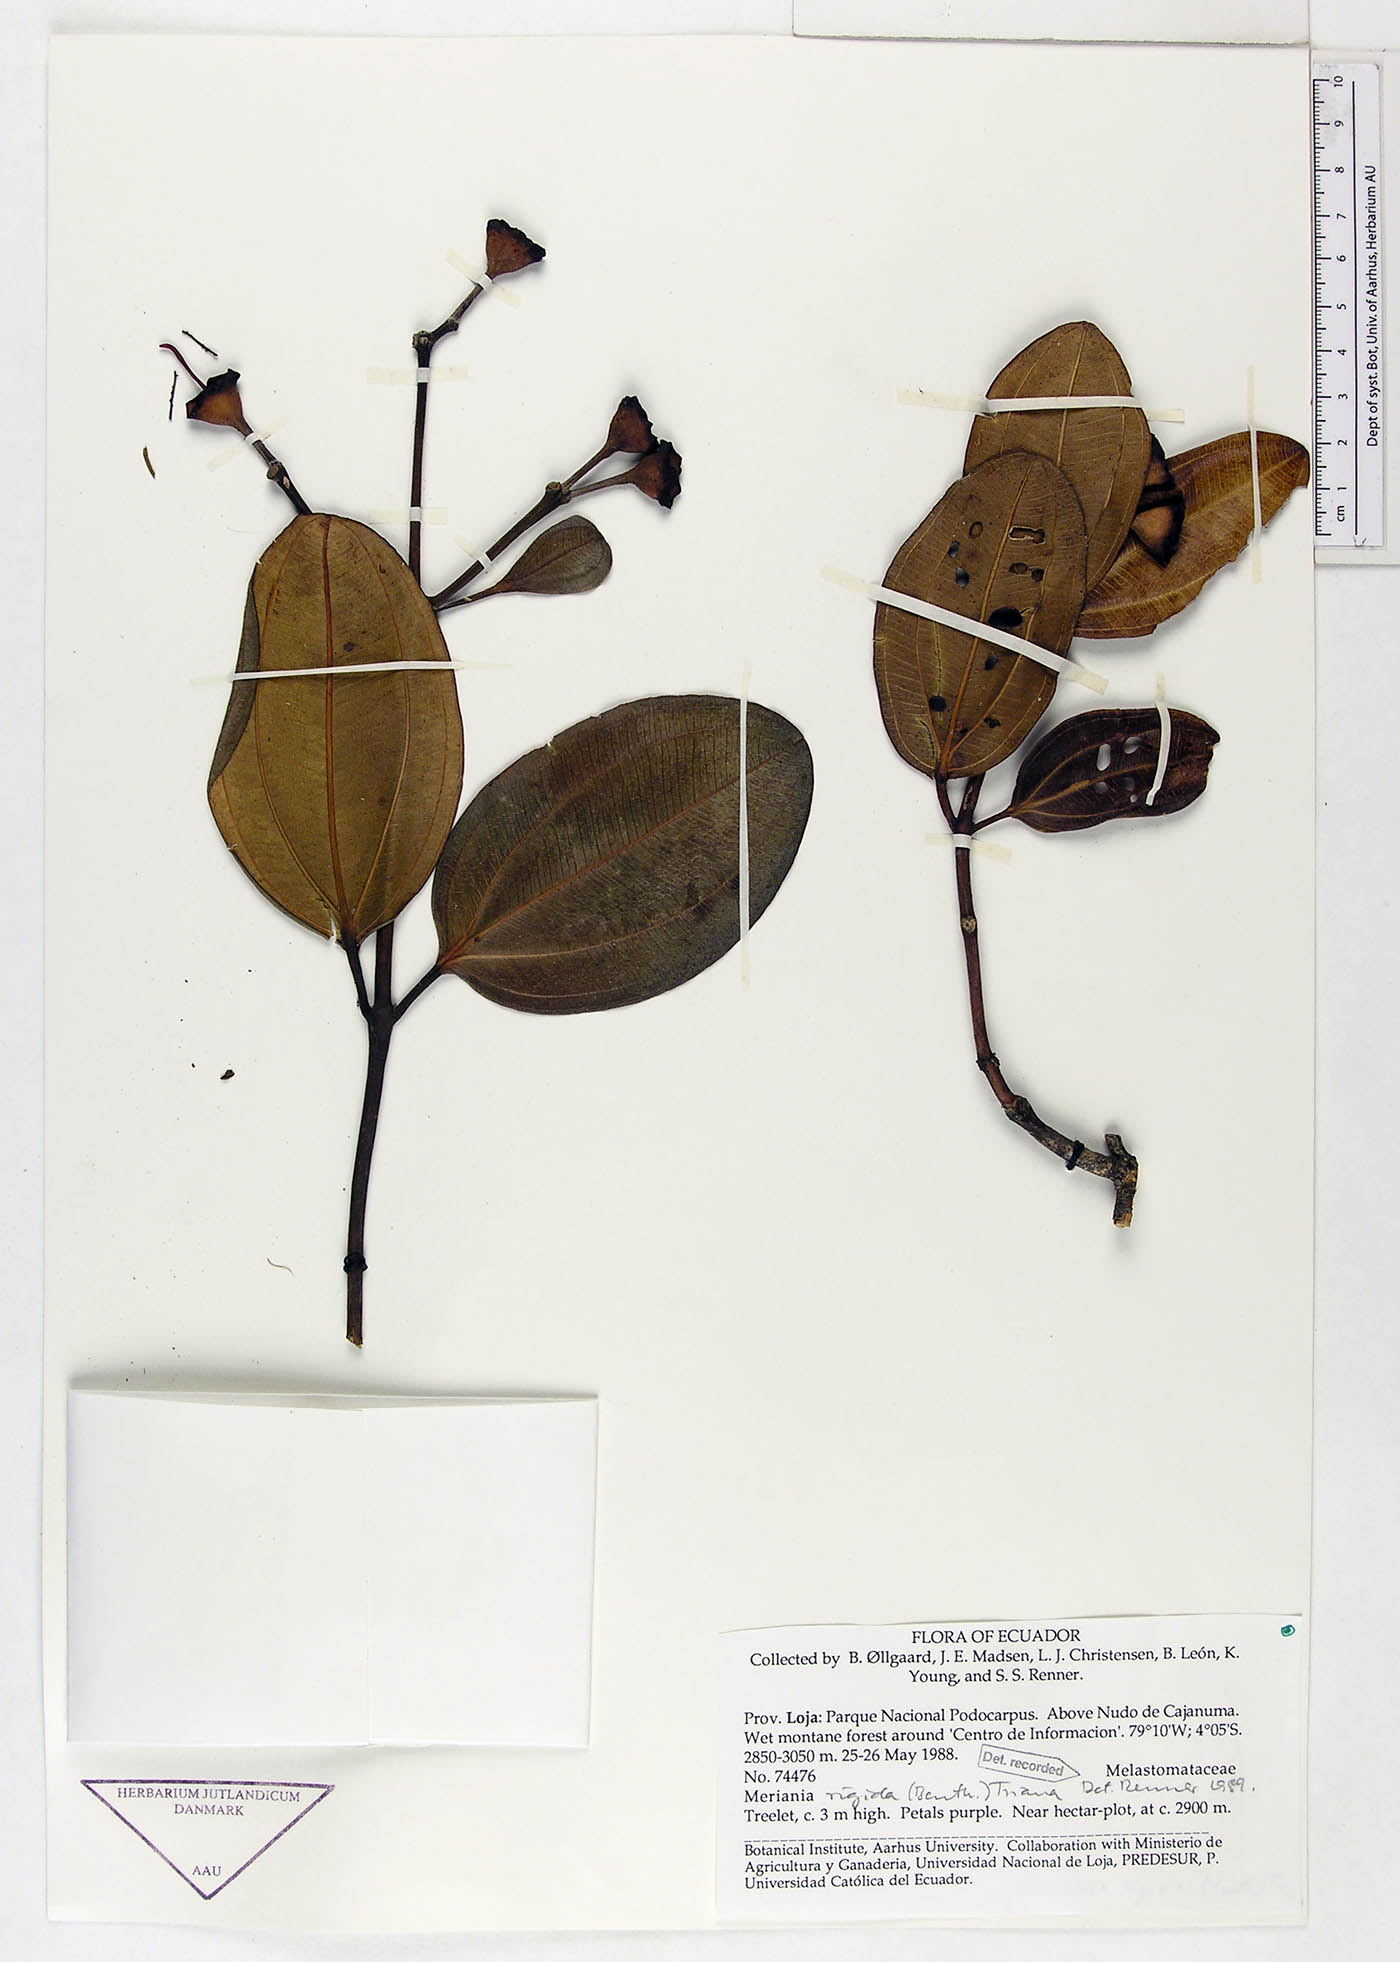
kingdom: Plantae
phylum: Tracheophyta
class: Magnoliopsida
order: Myrtales
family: Melastomataceae
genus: Meriania
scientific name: Meriania rigida
